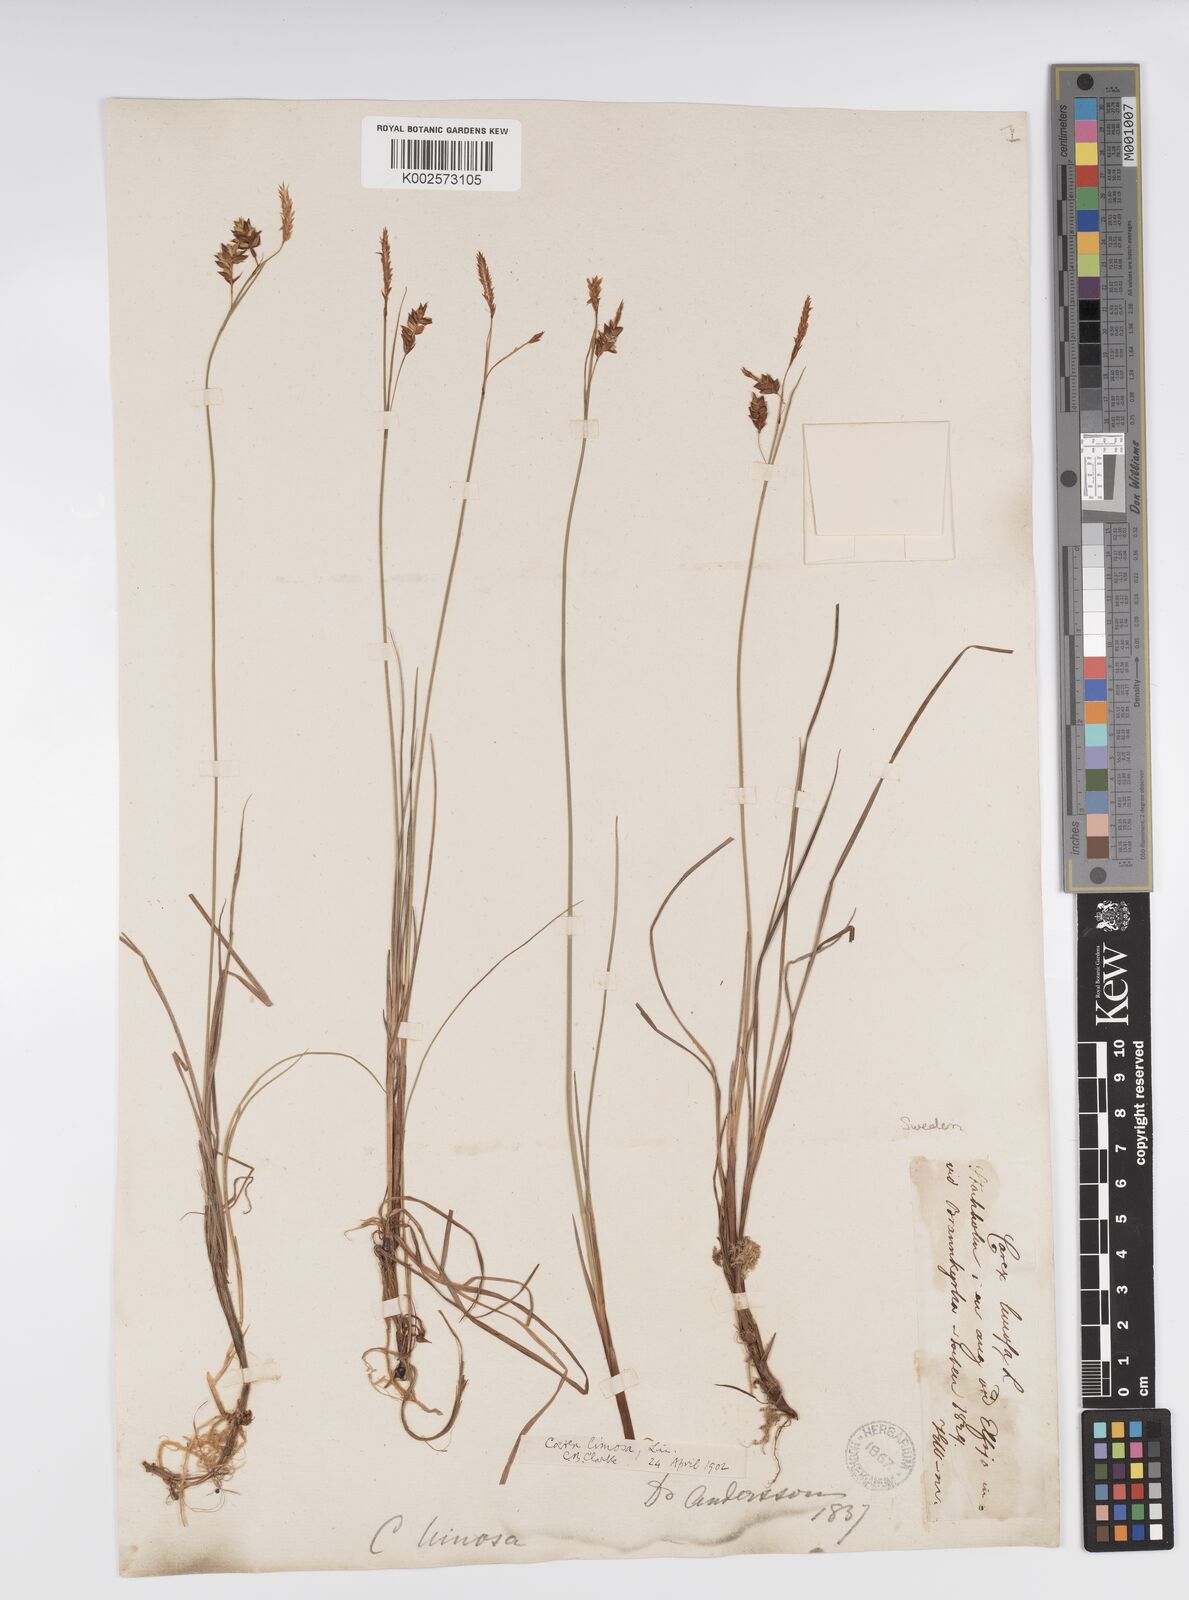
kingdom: Plantae
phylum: Tracheophyta
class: Liliopsida
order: Poales
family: Cyperaceae
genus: Carex
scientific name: Carex limosa
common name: Bog sedge
